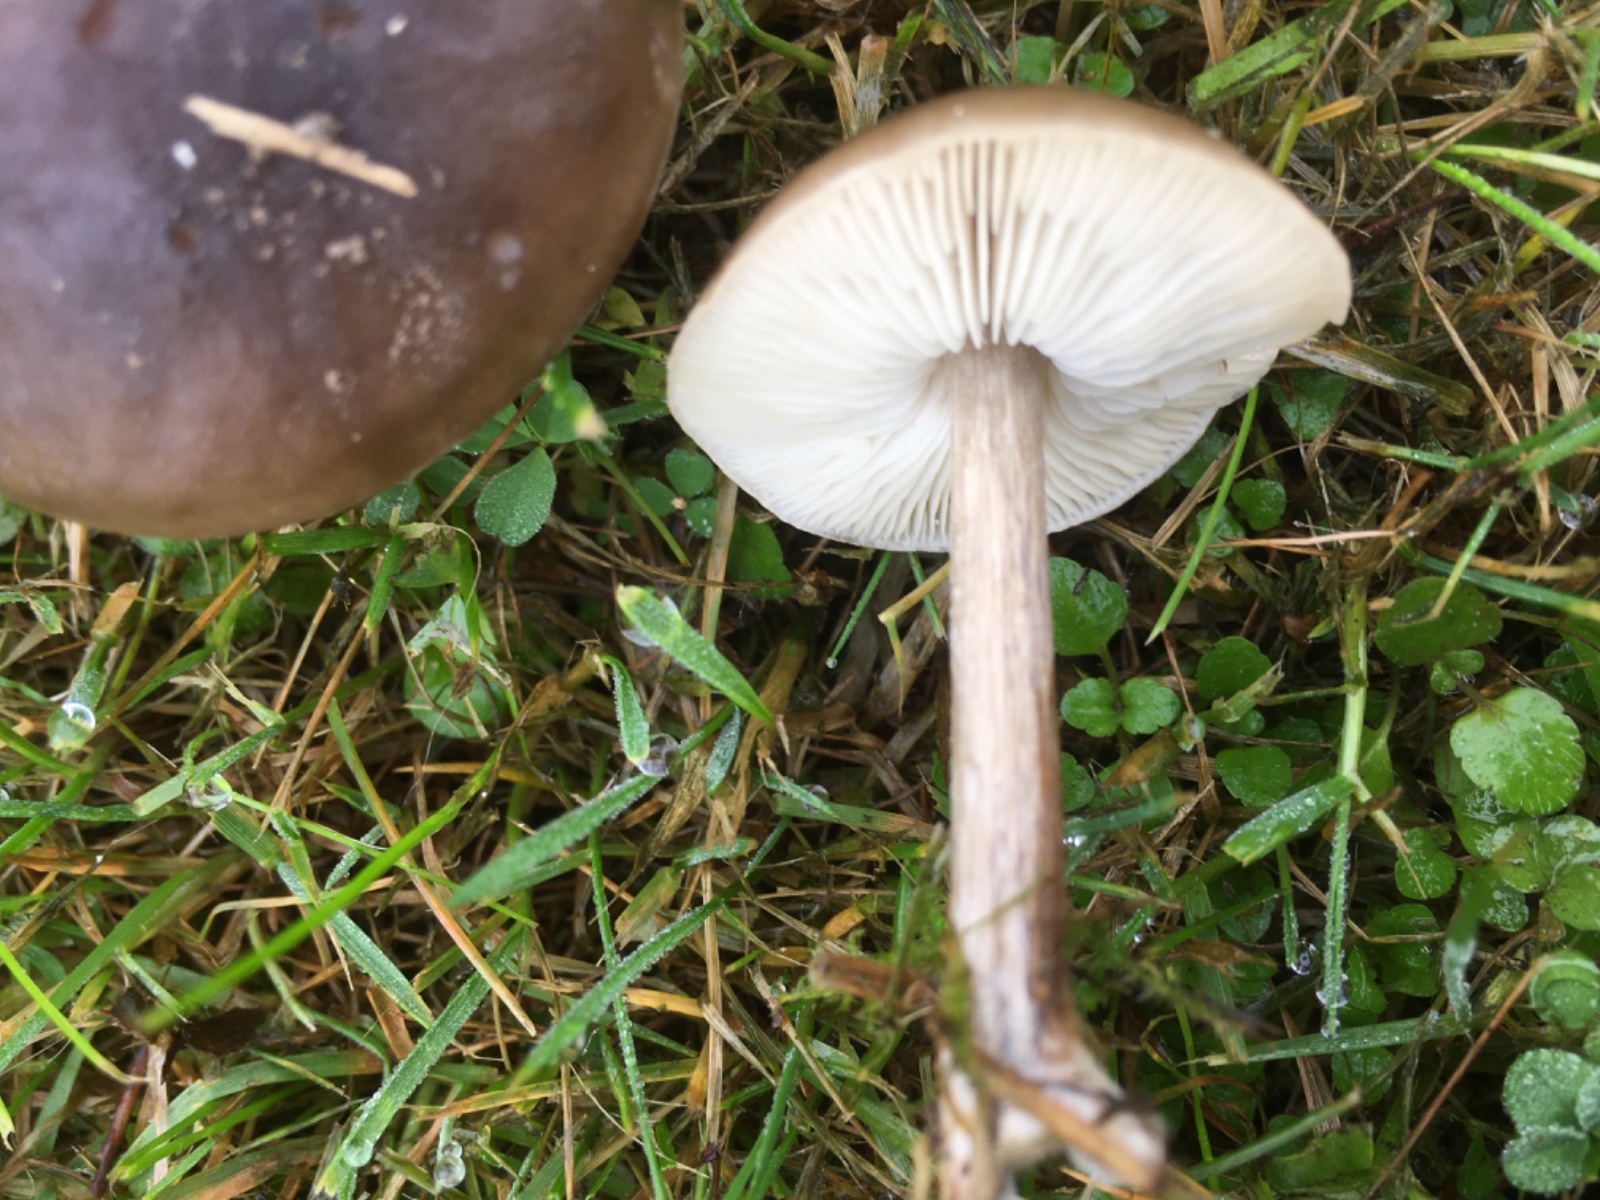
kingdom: Fungi
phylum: Basidiomycota
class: Agaricomycetes
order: Agaricales
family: Tricholomataceae
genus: Melanoleuca
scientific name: Melanoleuca polioleuca
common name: almindelig munkehat
